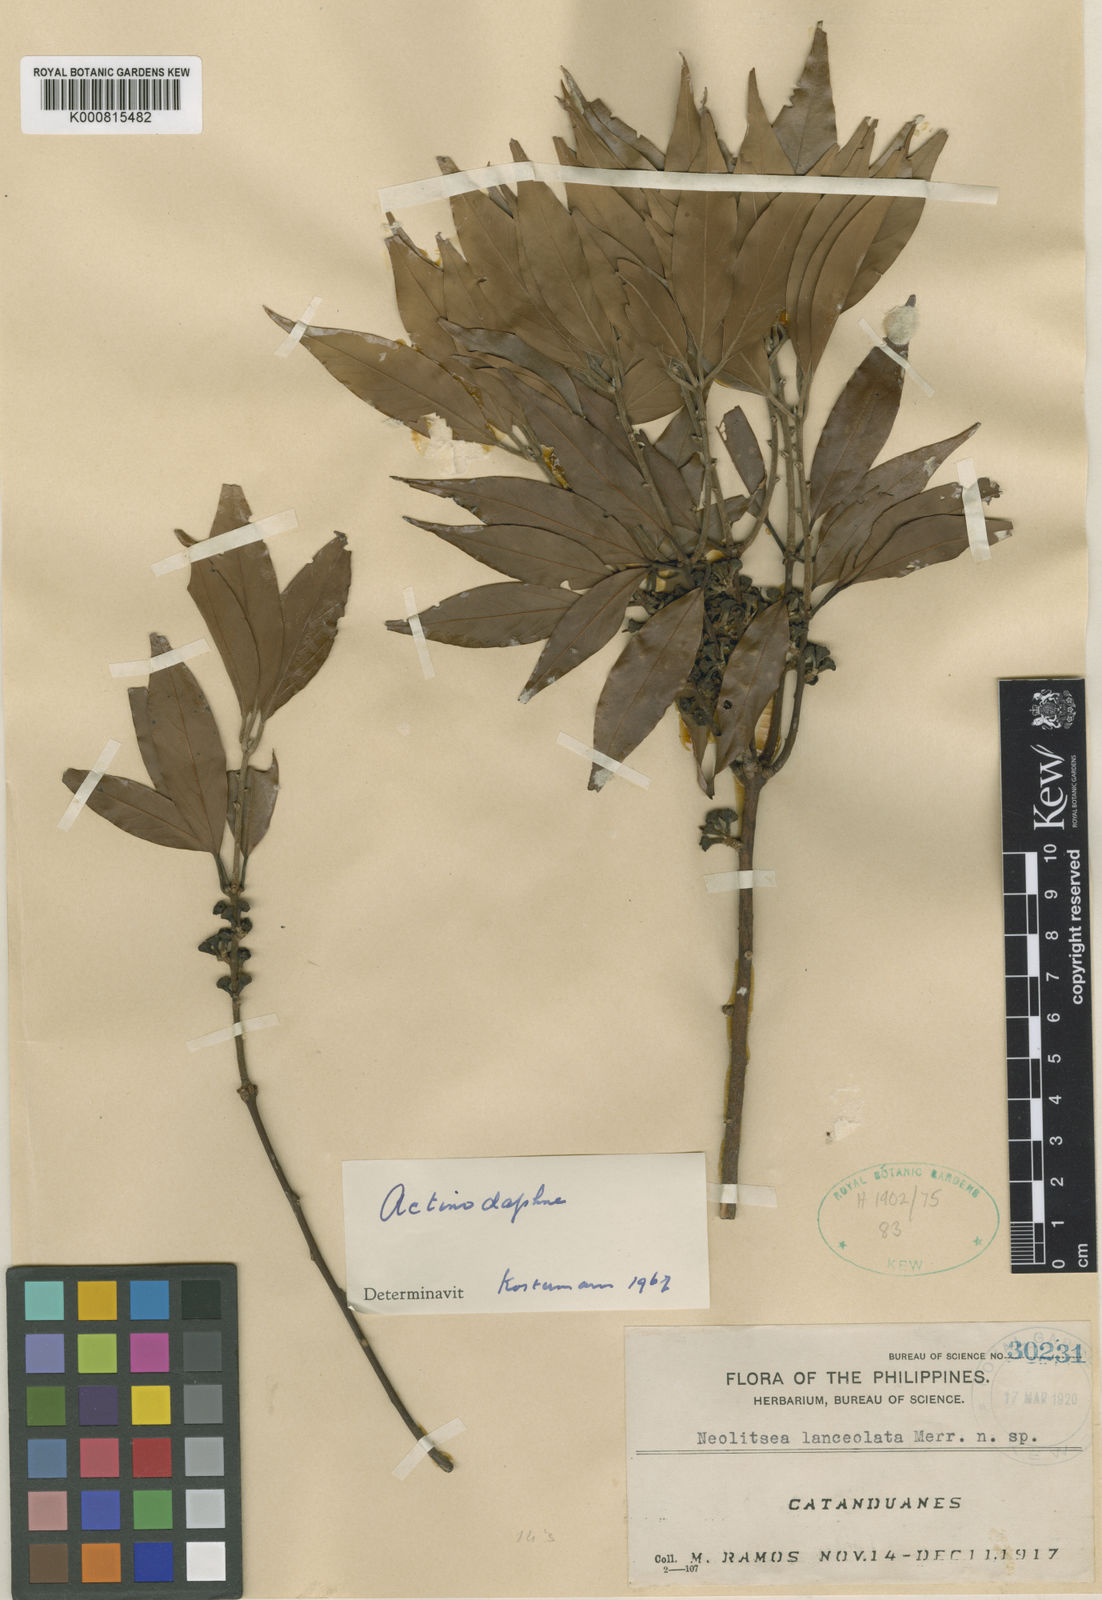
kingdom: Plantae
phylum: Tracheophyta
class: Magnoliopsida
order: Laurales
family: Lauraceae
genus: Neolitsea
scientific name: Neolitsea
